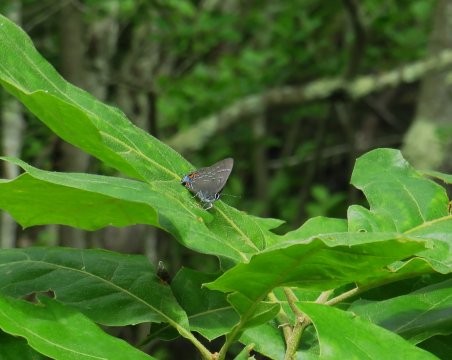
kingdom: Animalia
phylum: Arthropoda
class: Insecta
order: Lepidoptera
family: Lycaenidae
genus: Satyrium
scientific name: Satyrium calanus
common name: Banded Hairstreak
